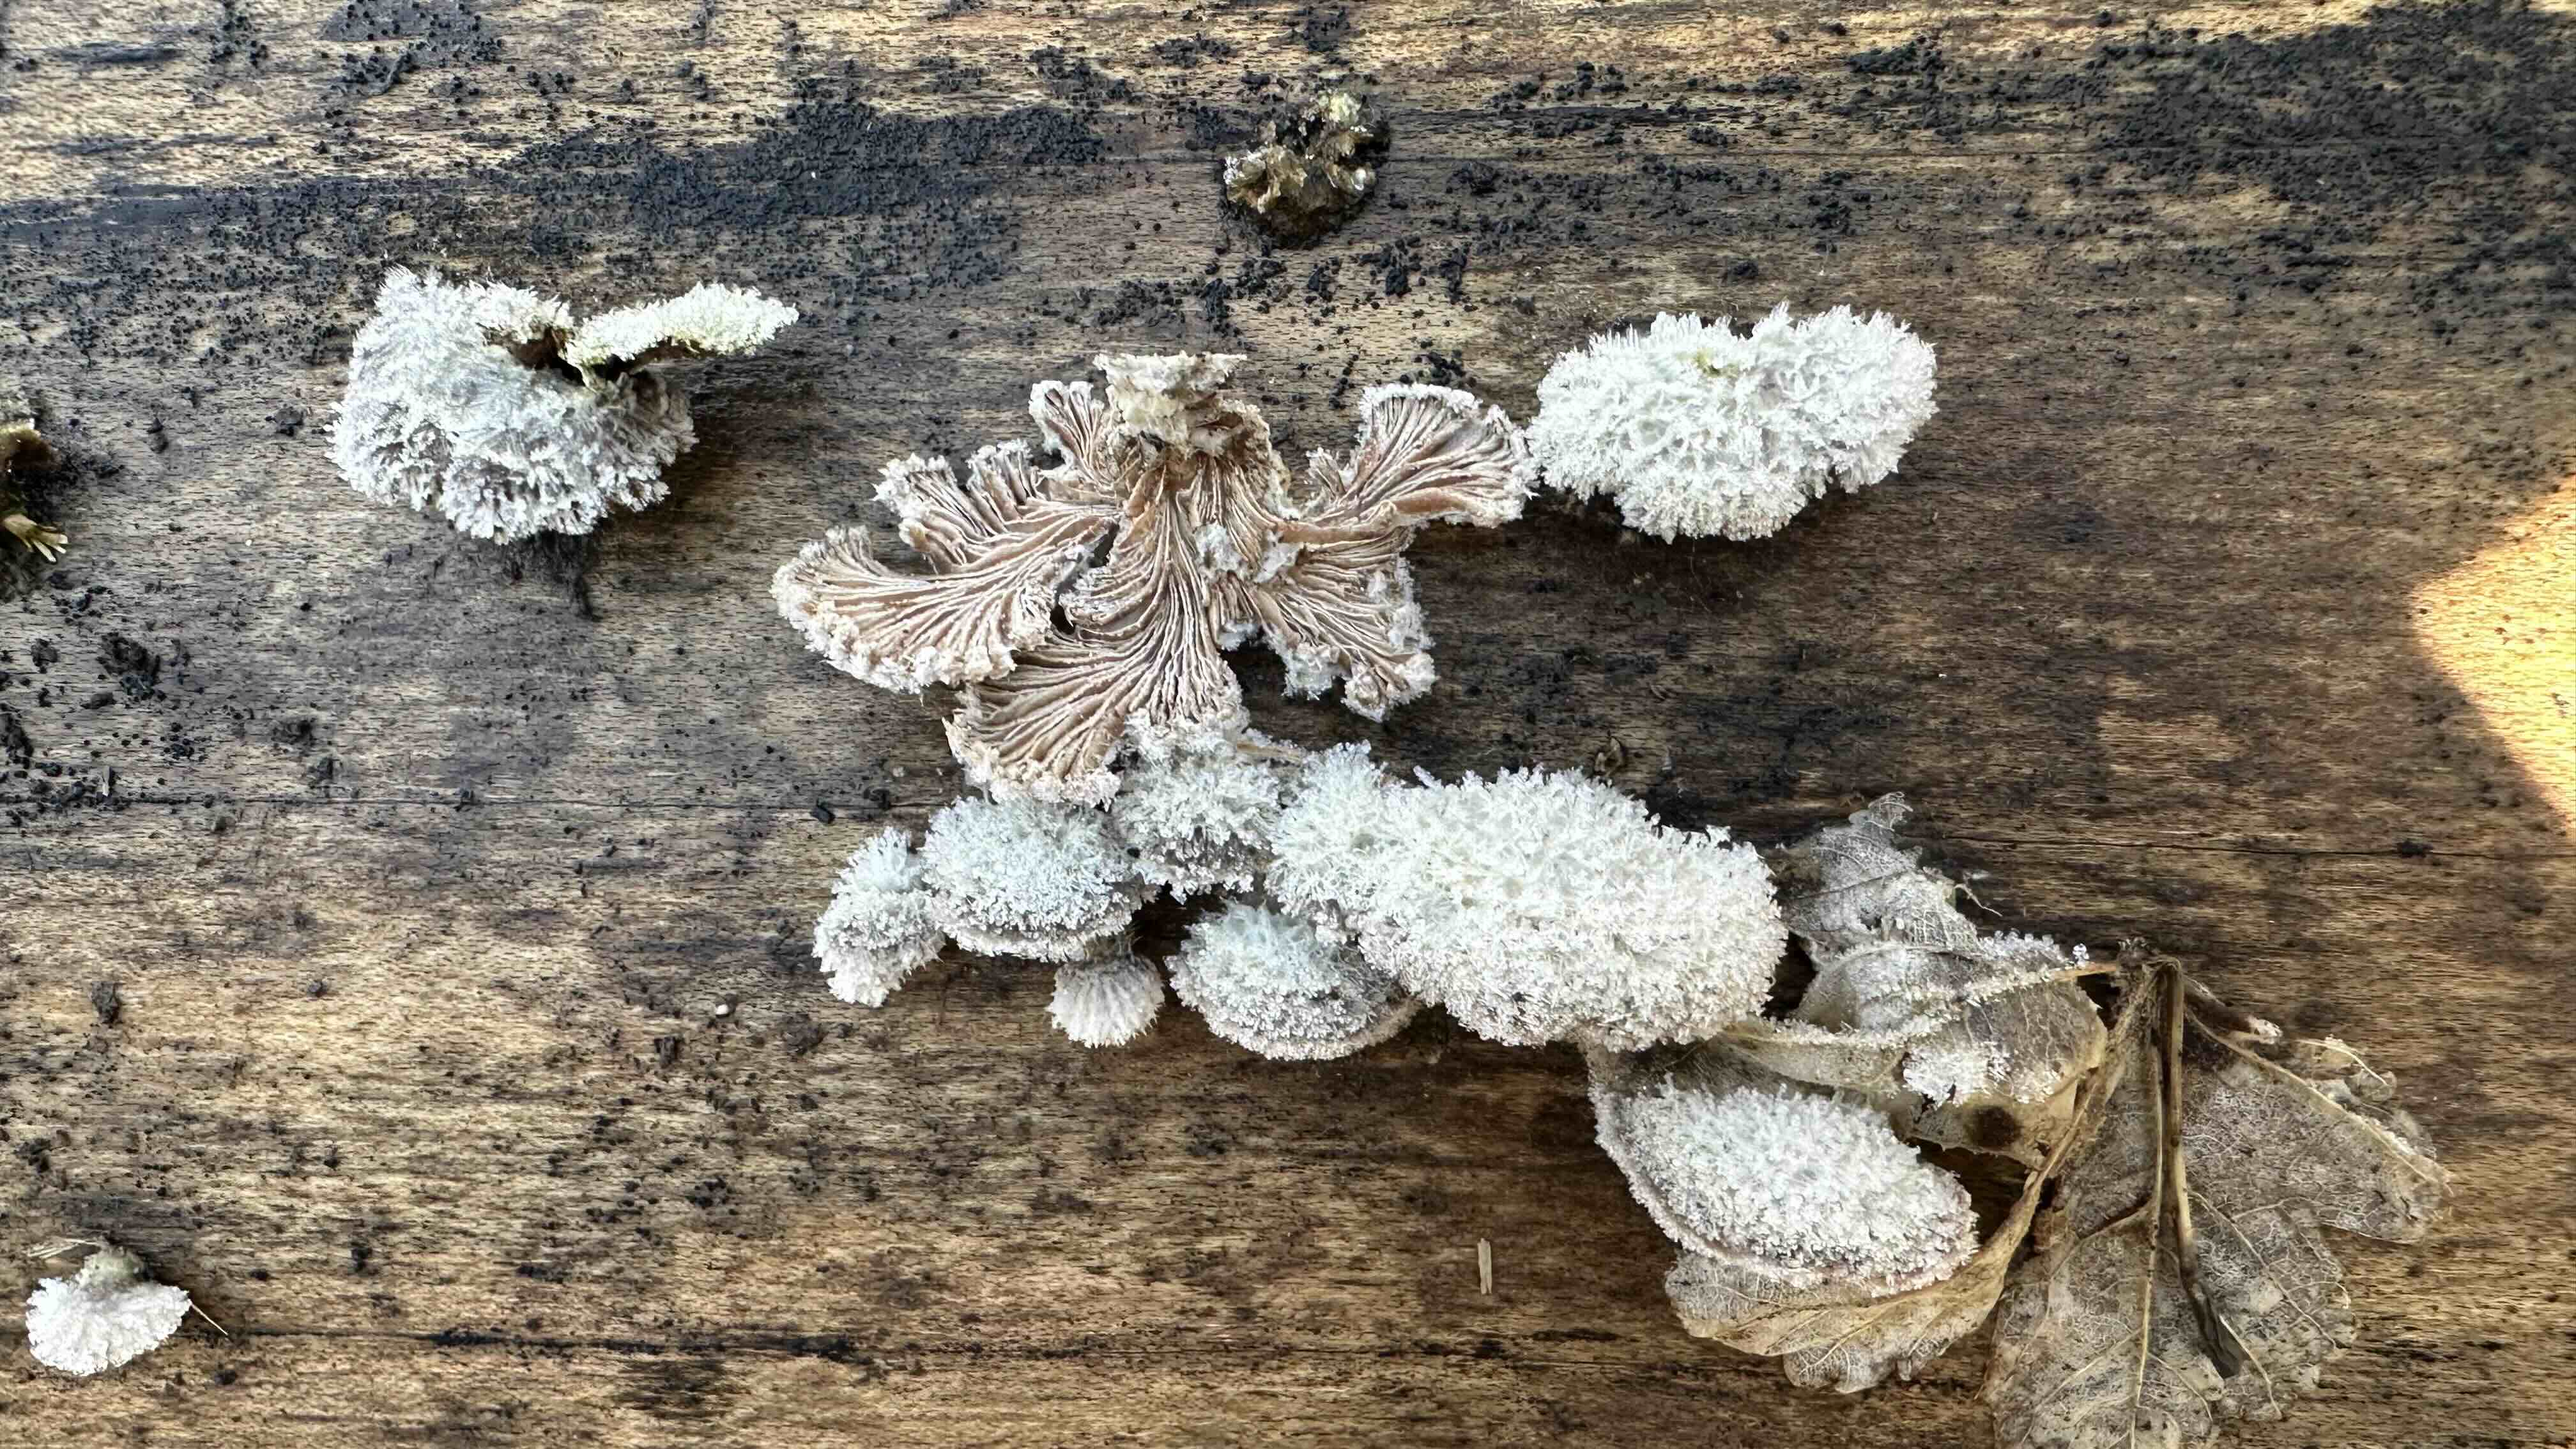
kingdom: Fungi
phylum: Basidiomycota
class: Agaricomycetes
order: Agaricales
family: Schizophyllaceae
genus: Schizophyllum
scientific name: Schizophyllum commune
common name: kløvblad
